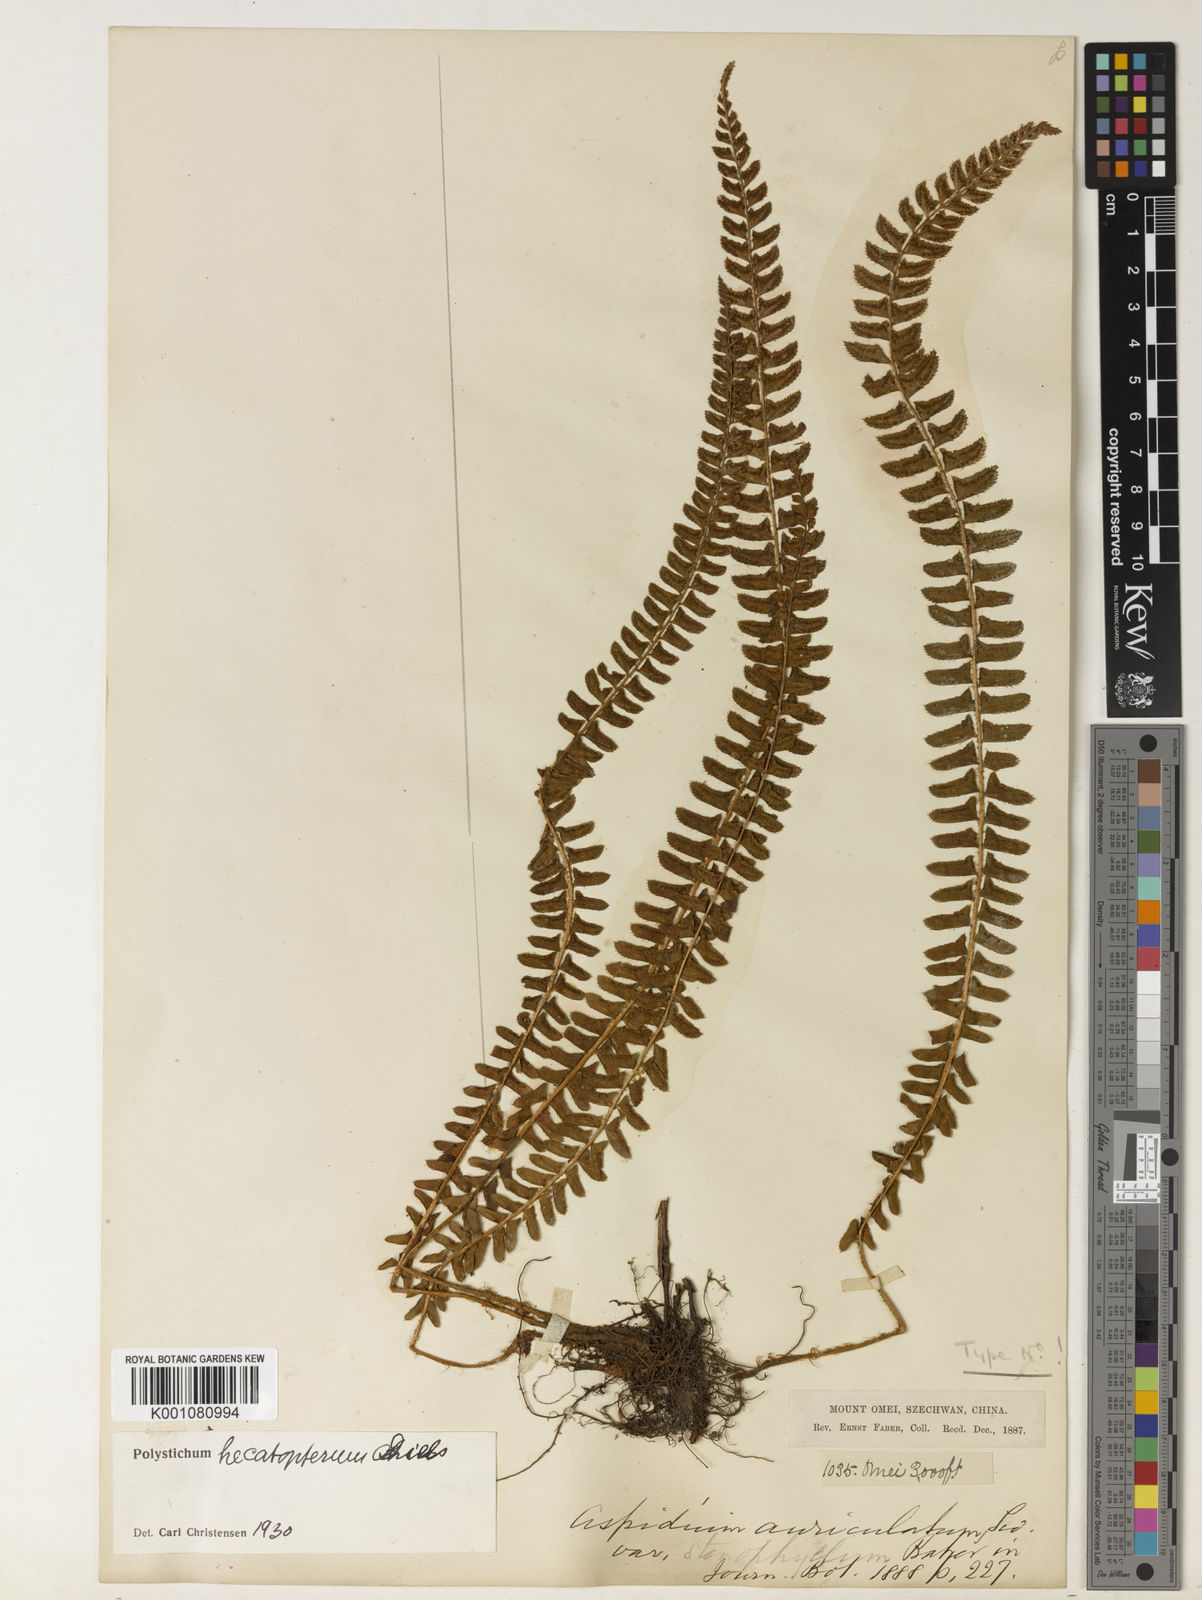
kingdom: Plantae
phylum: Tracheophyta
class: Polypodiopsida
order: Polypodiales
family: Dryopteridaceae
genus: Polystichum
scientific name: Polystichum hecatopterum
